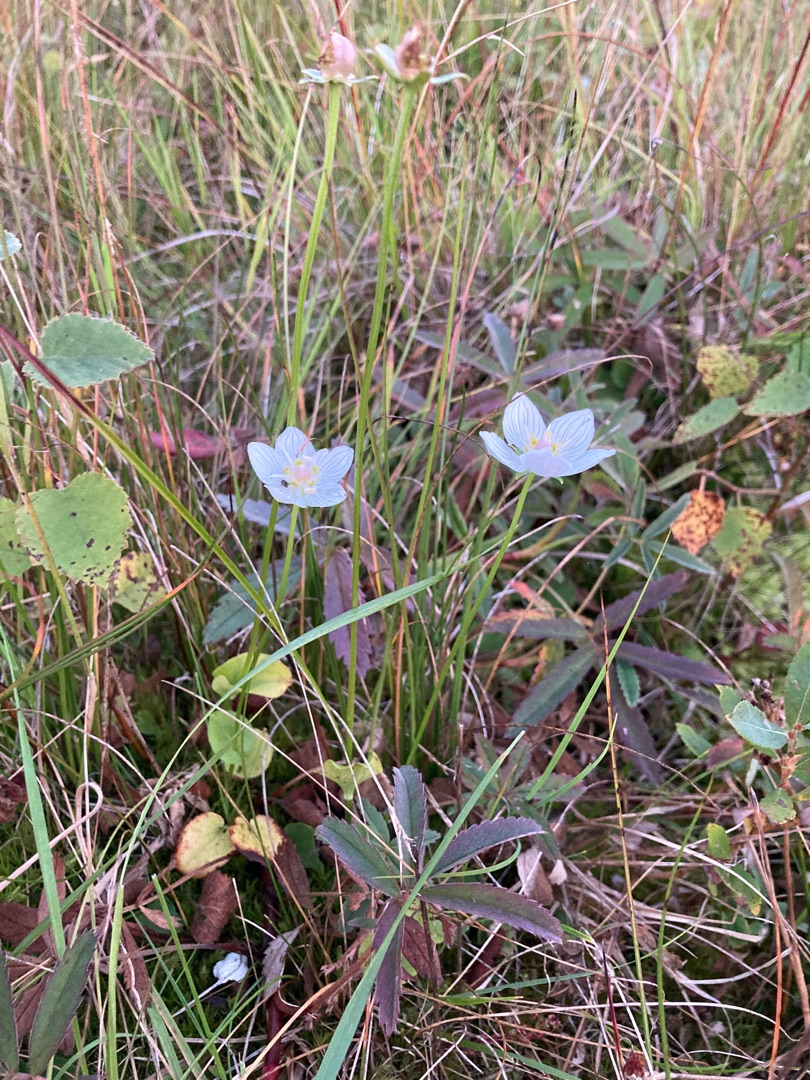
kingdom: Plantae
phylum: Tracheophyta
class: Magnoliopsida
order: Celastrales
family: Parnassiaceae
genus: Parnassia
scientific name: Parnassia palustris
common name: Leverurt
